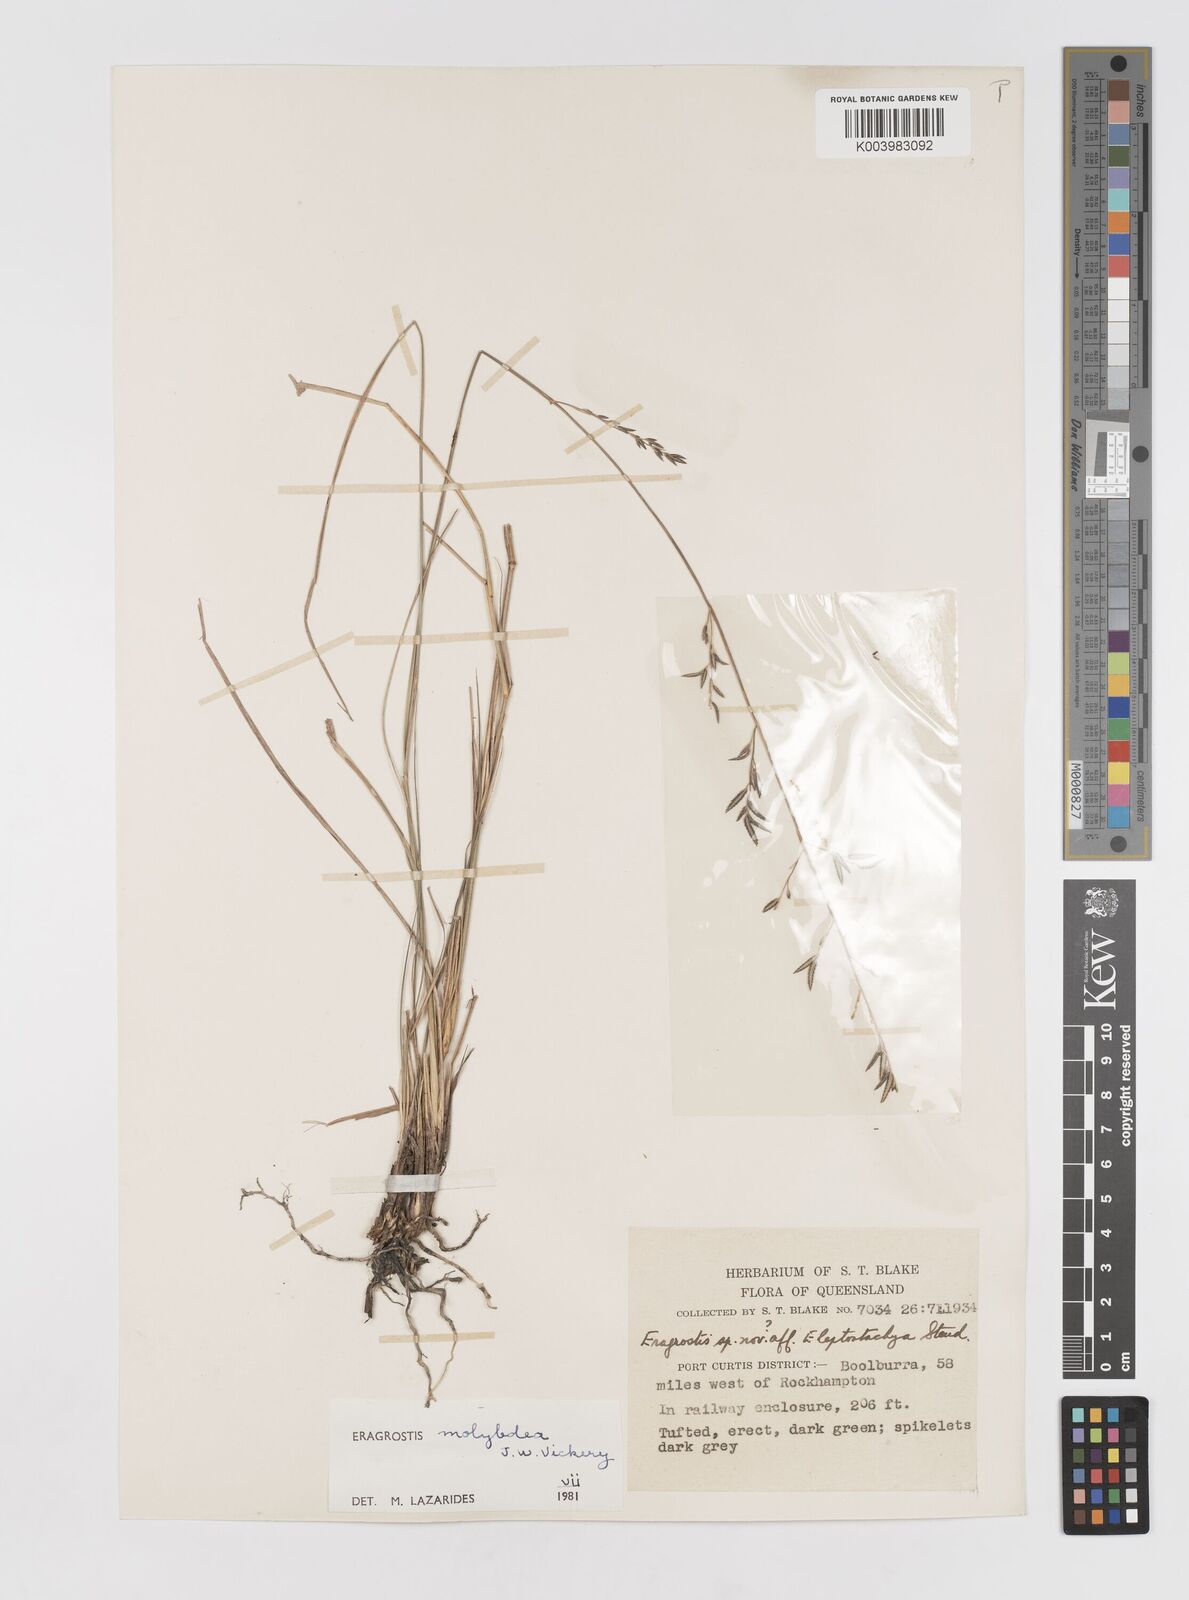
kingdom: Plantae
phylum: Tracheophyta
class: Liliopsida
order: Poales
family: Poaceae
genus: Eragrostis
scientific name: Eragrostis leptostachya
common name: Australian lovegrass
